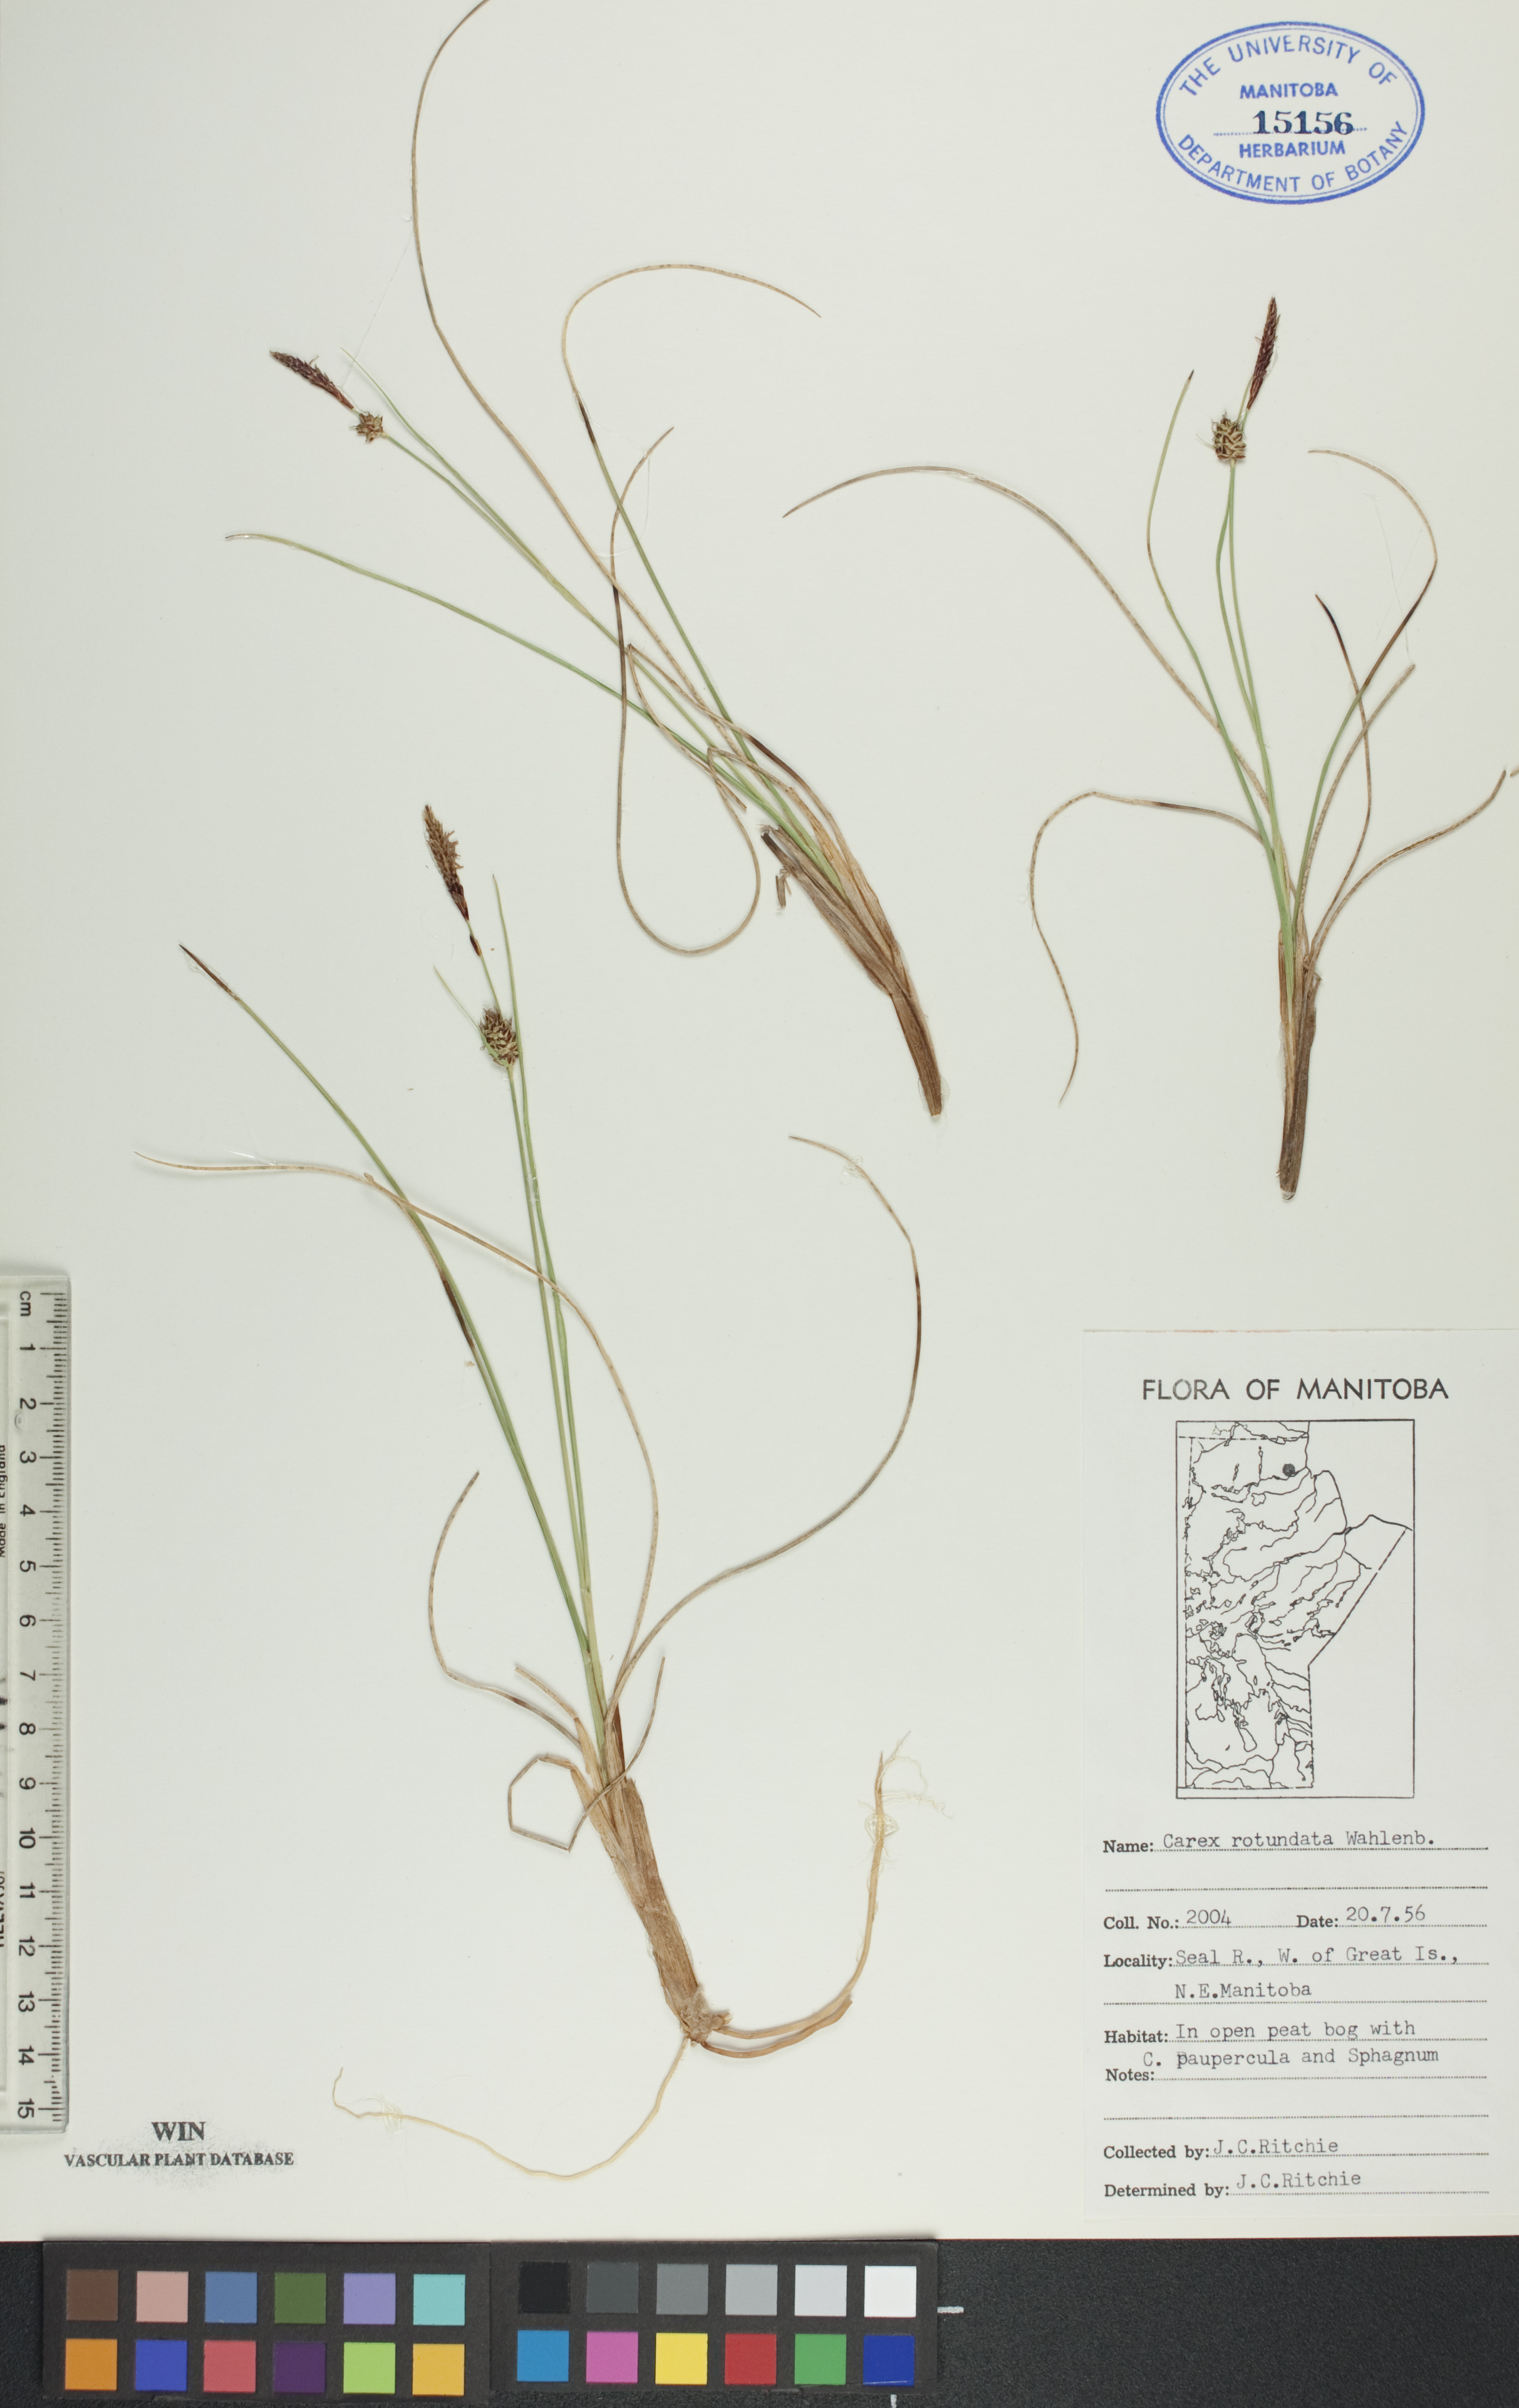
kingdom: Plantae
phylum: Tracheophyta
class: Liliopsida
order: Poales
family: Cyperaceae
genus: Carex
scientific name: Carex rotundata
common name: Round-fruited sedge
